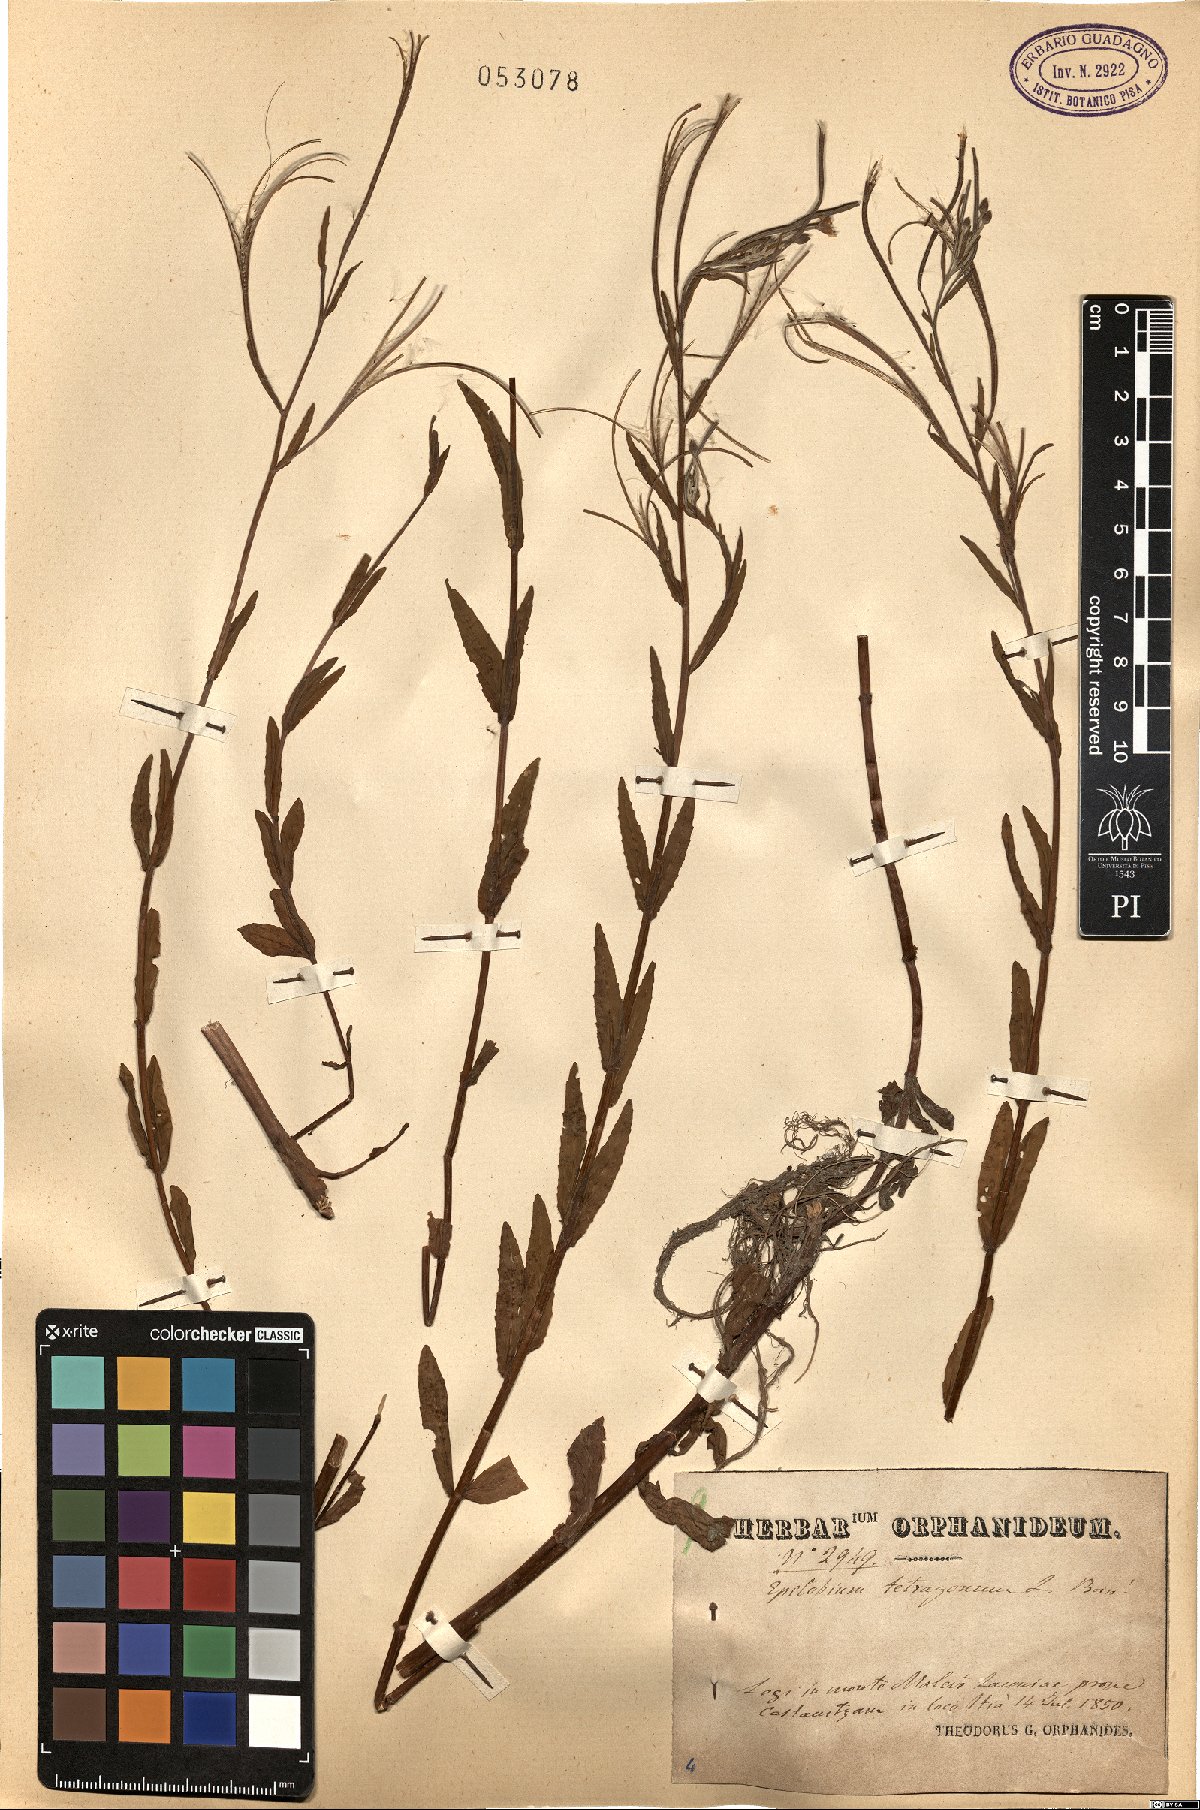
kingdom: Plantae
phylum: Tracheophyta
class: Magnoliopsida
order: Myrtales
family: Onagraceae
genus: Epilobium
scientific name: Epilobium tetragonum
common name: Square-stemmed willowherb
